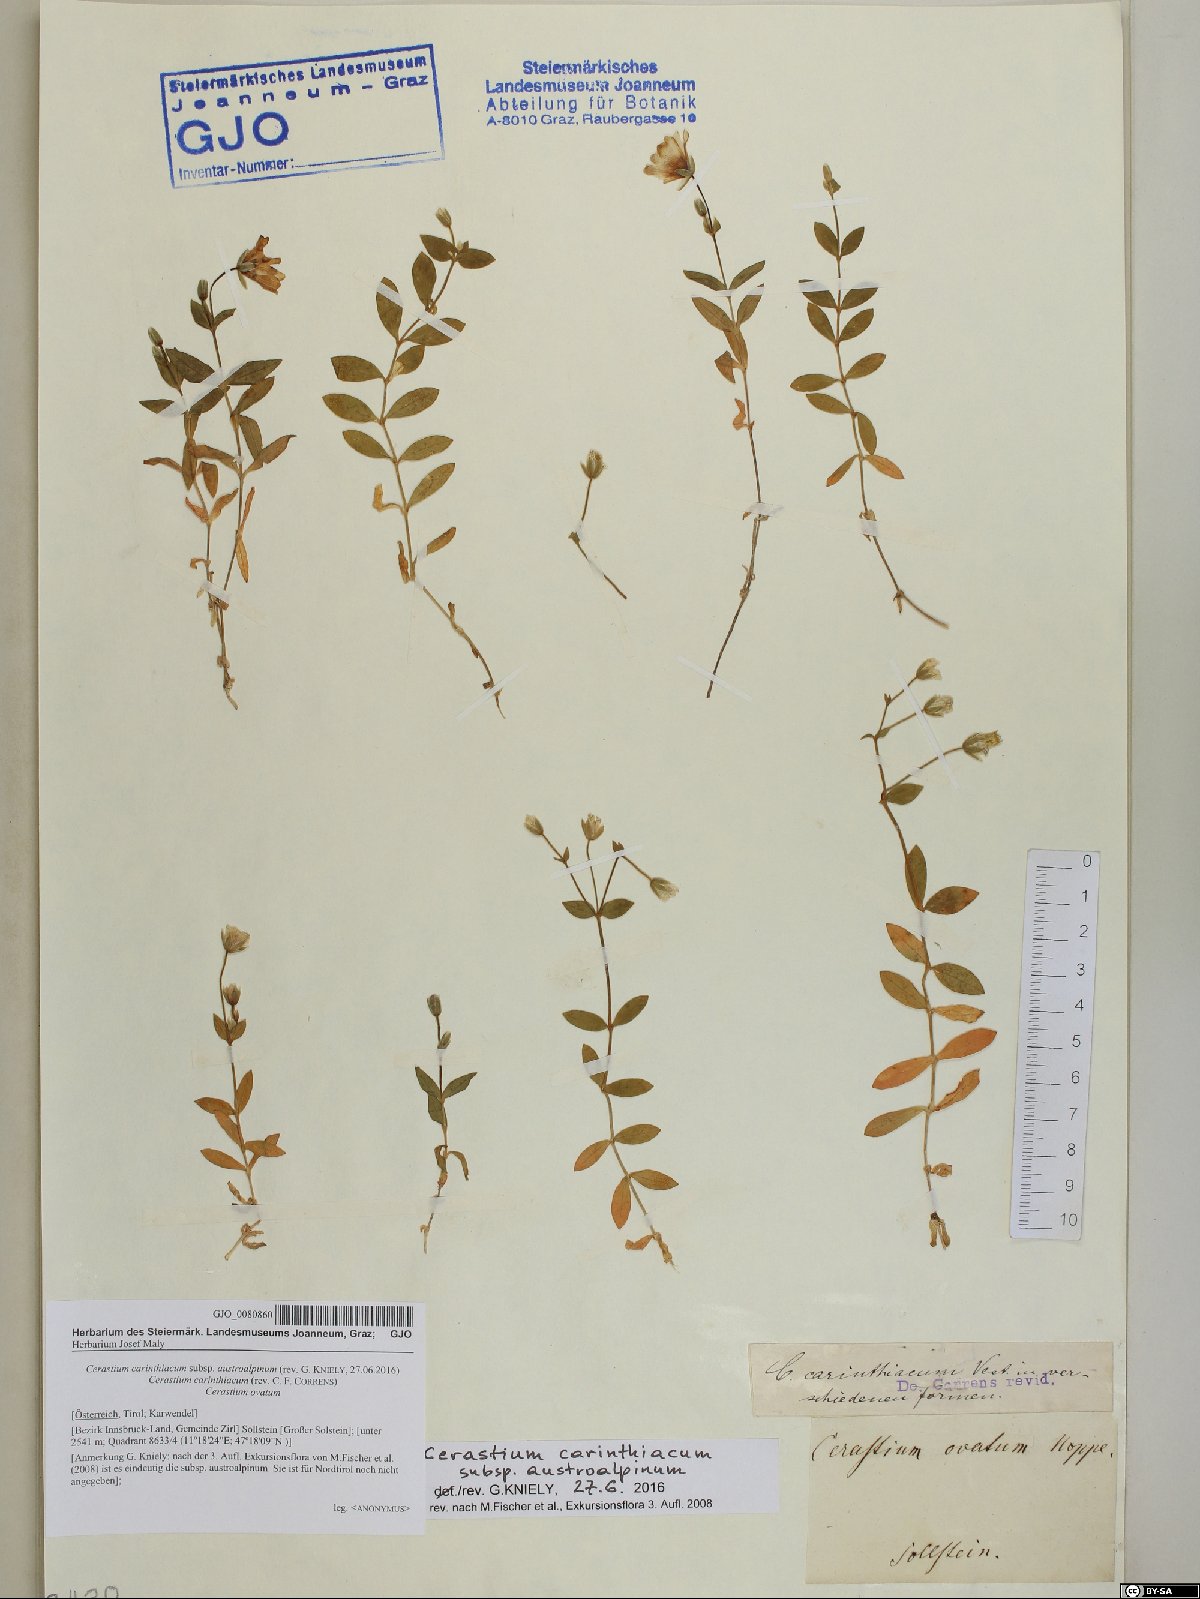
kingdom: Plantae
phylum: Tracheophyta
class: Magnoliopsida
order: Caryophyllales
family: Caryophyllaceae
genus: Cerastium
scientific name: Cerastium carinthiacum
